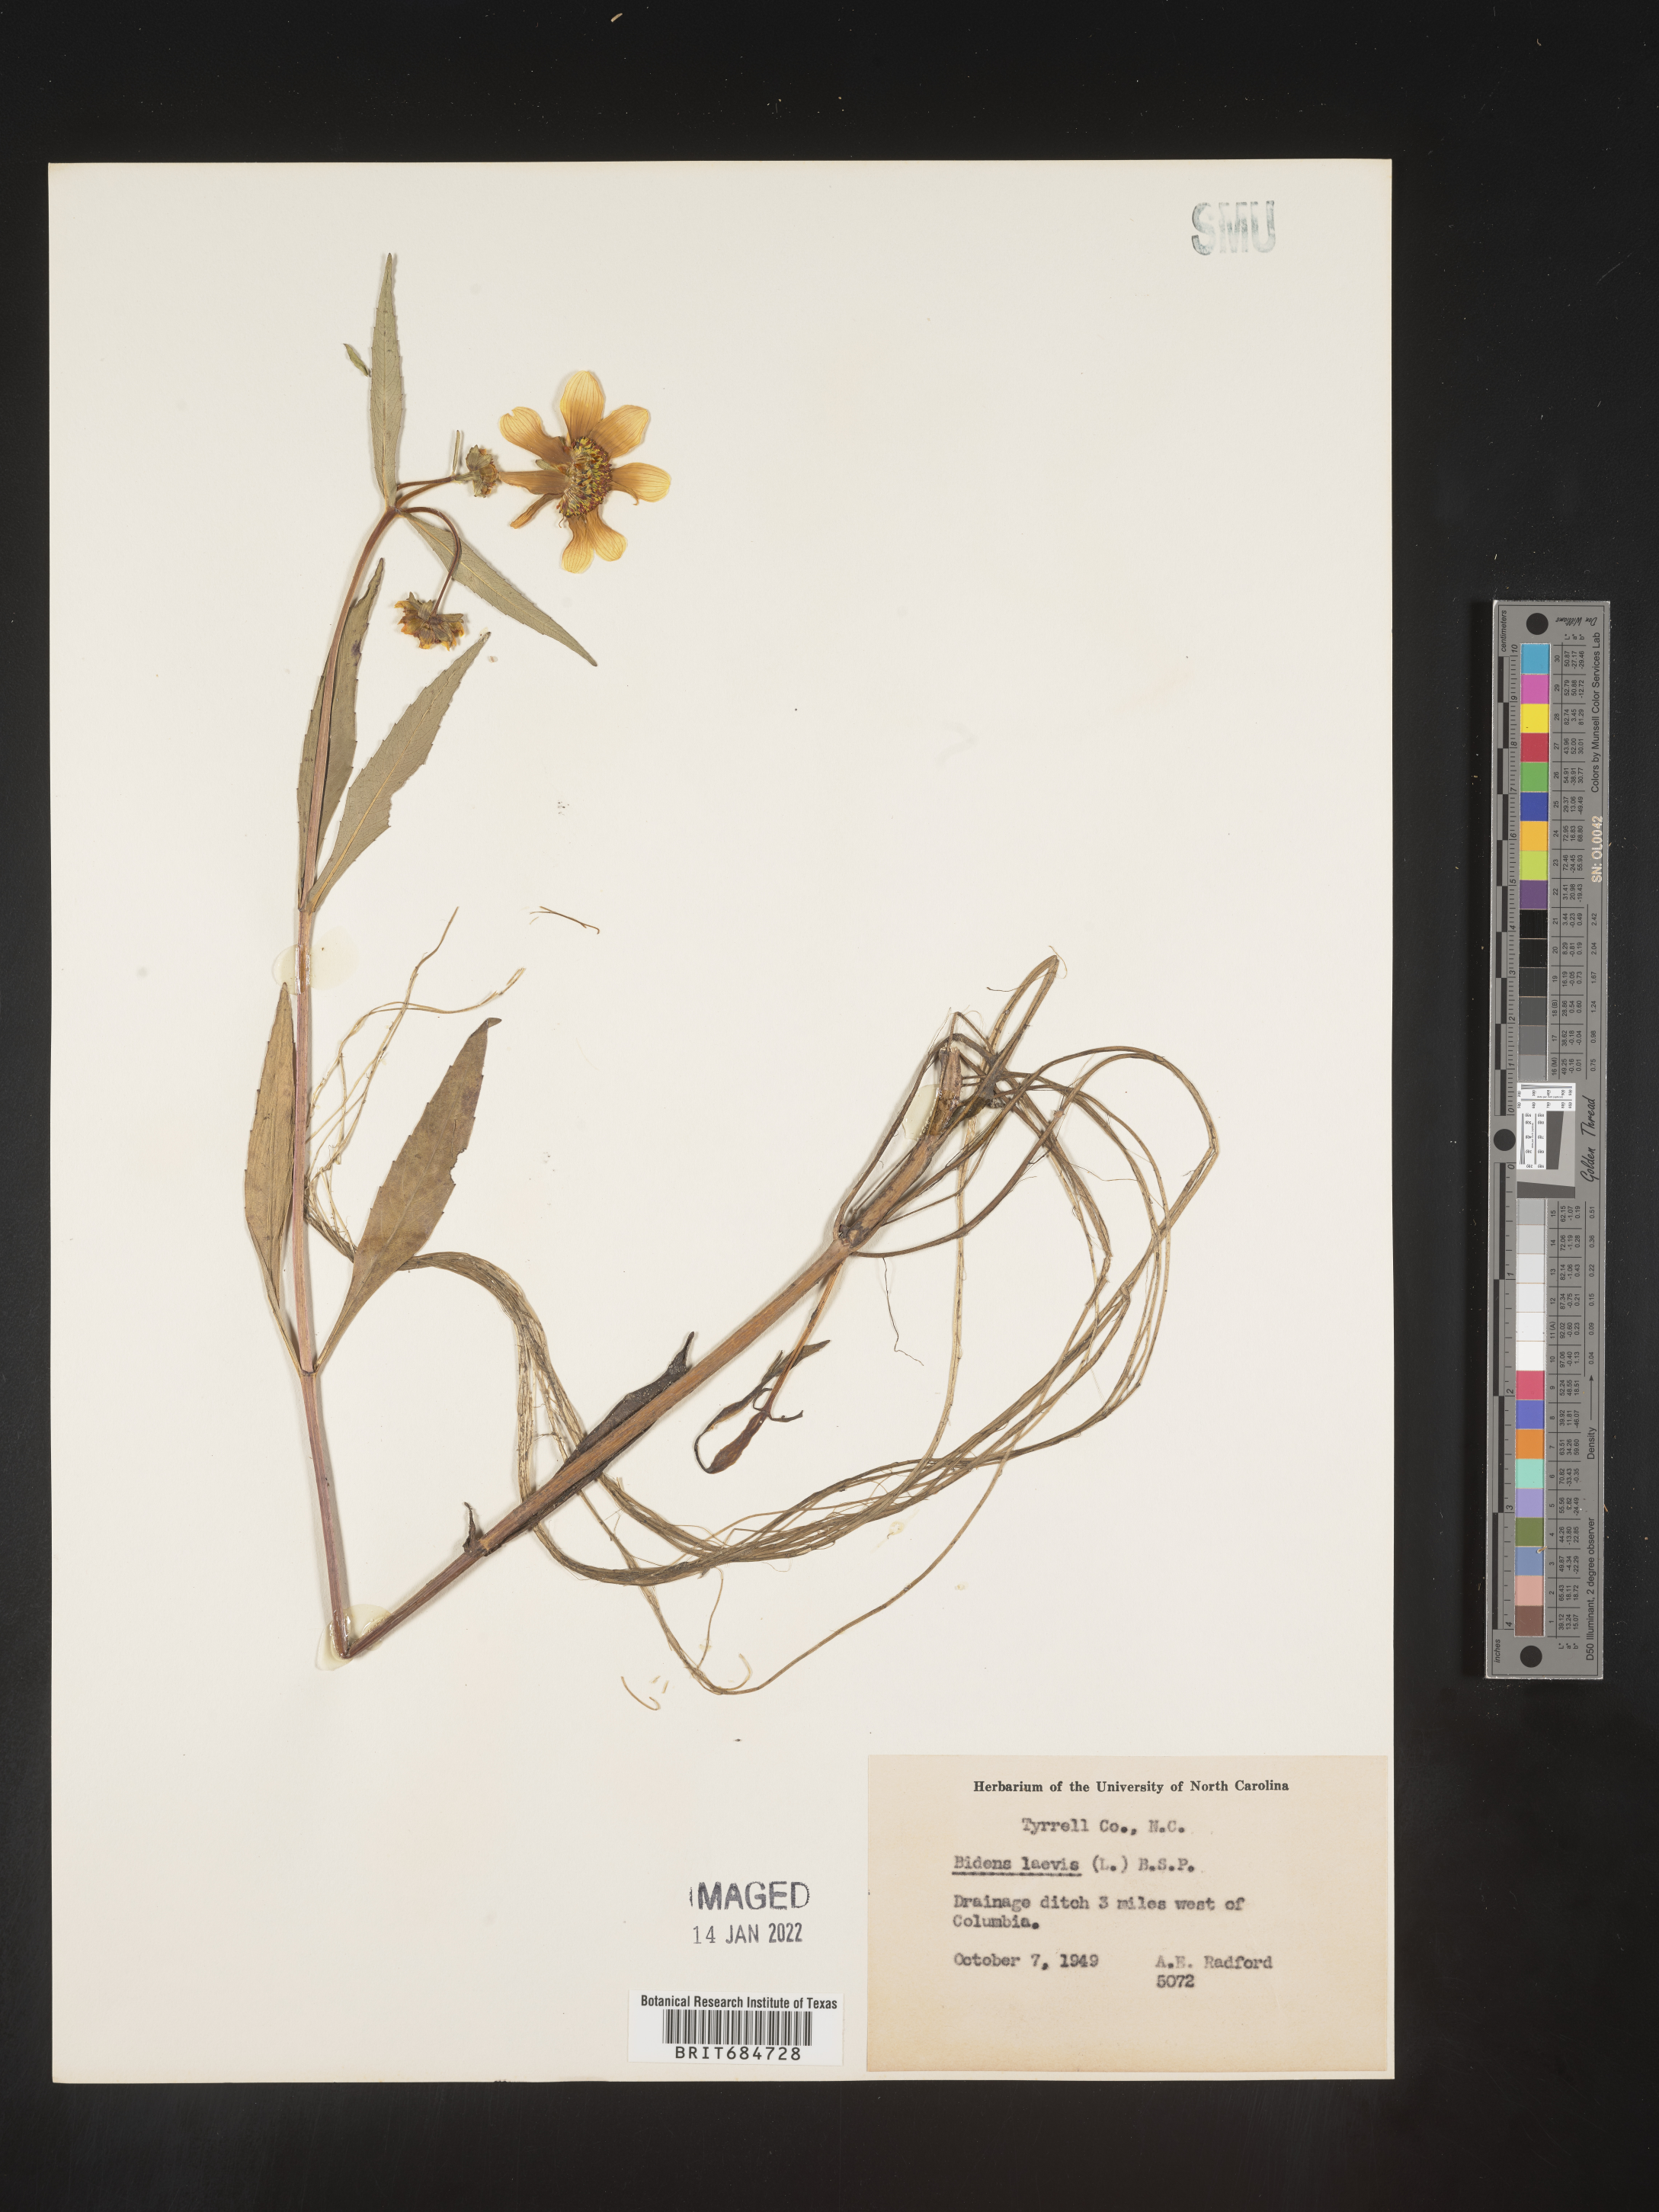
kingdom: Plantae
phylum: Tracheophyta
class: Magnoliopsida
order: Asterales
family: Asteraceae
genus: Bidens
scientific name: Bidens laevis
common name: Larger bur-marigold
